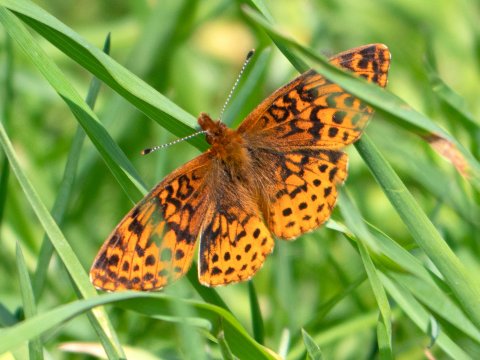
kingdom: Animalia
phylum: Arthropoda
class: Insecta
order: Lepidoptera
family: Nymphalidae
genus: Clossiana
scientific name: Clossiana toddi
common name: Meadow Fritillary
